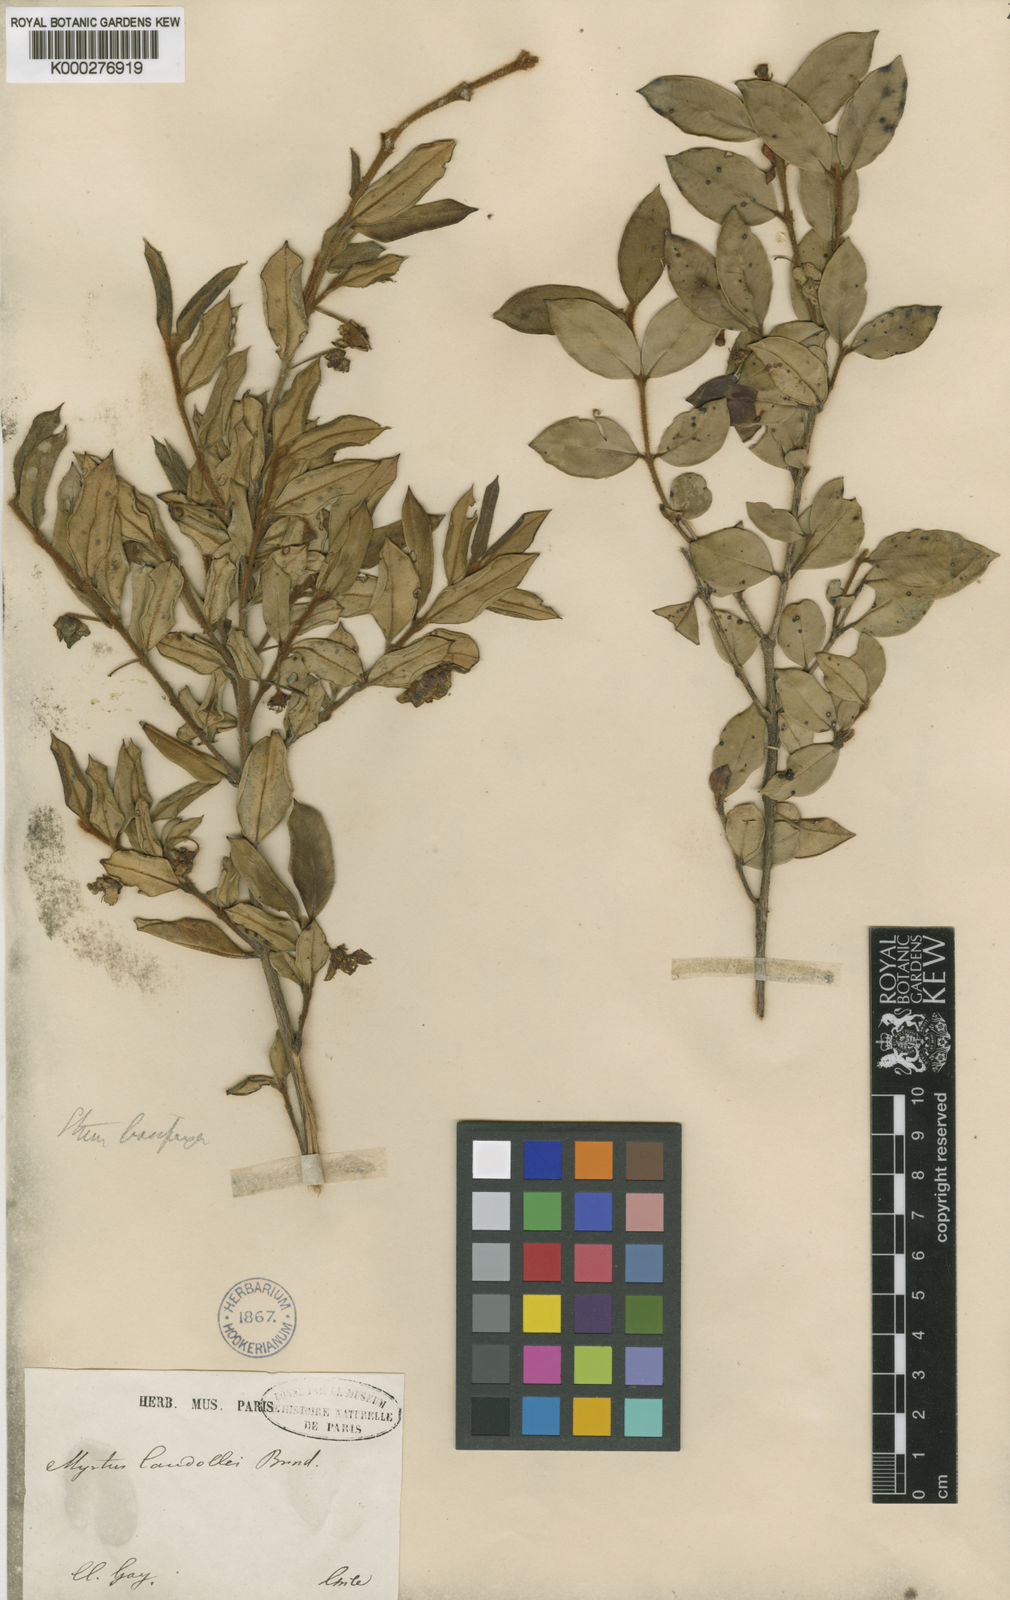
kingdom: Plantae
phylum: Tracheophyta
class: Magnoliopsida
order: Myrtales
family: Myrtaceae
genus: Ugni
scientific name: Ugni candollei
